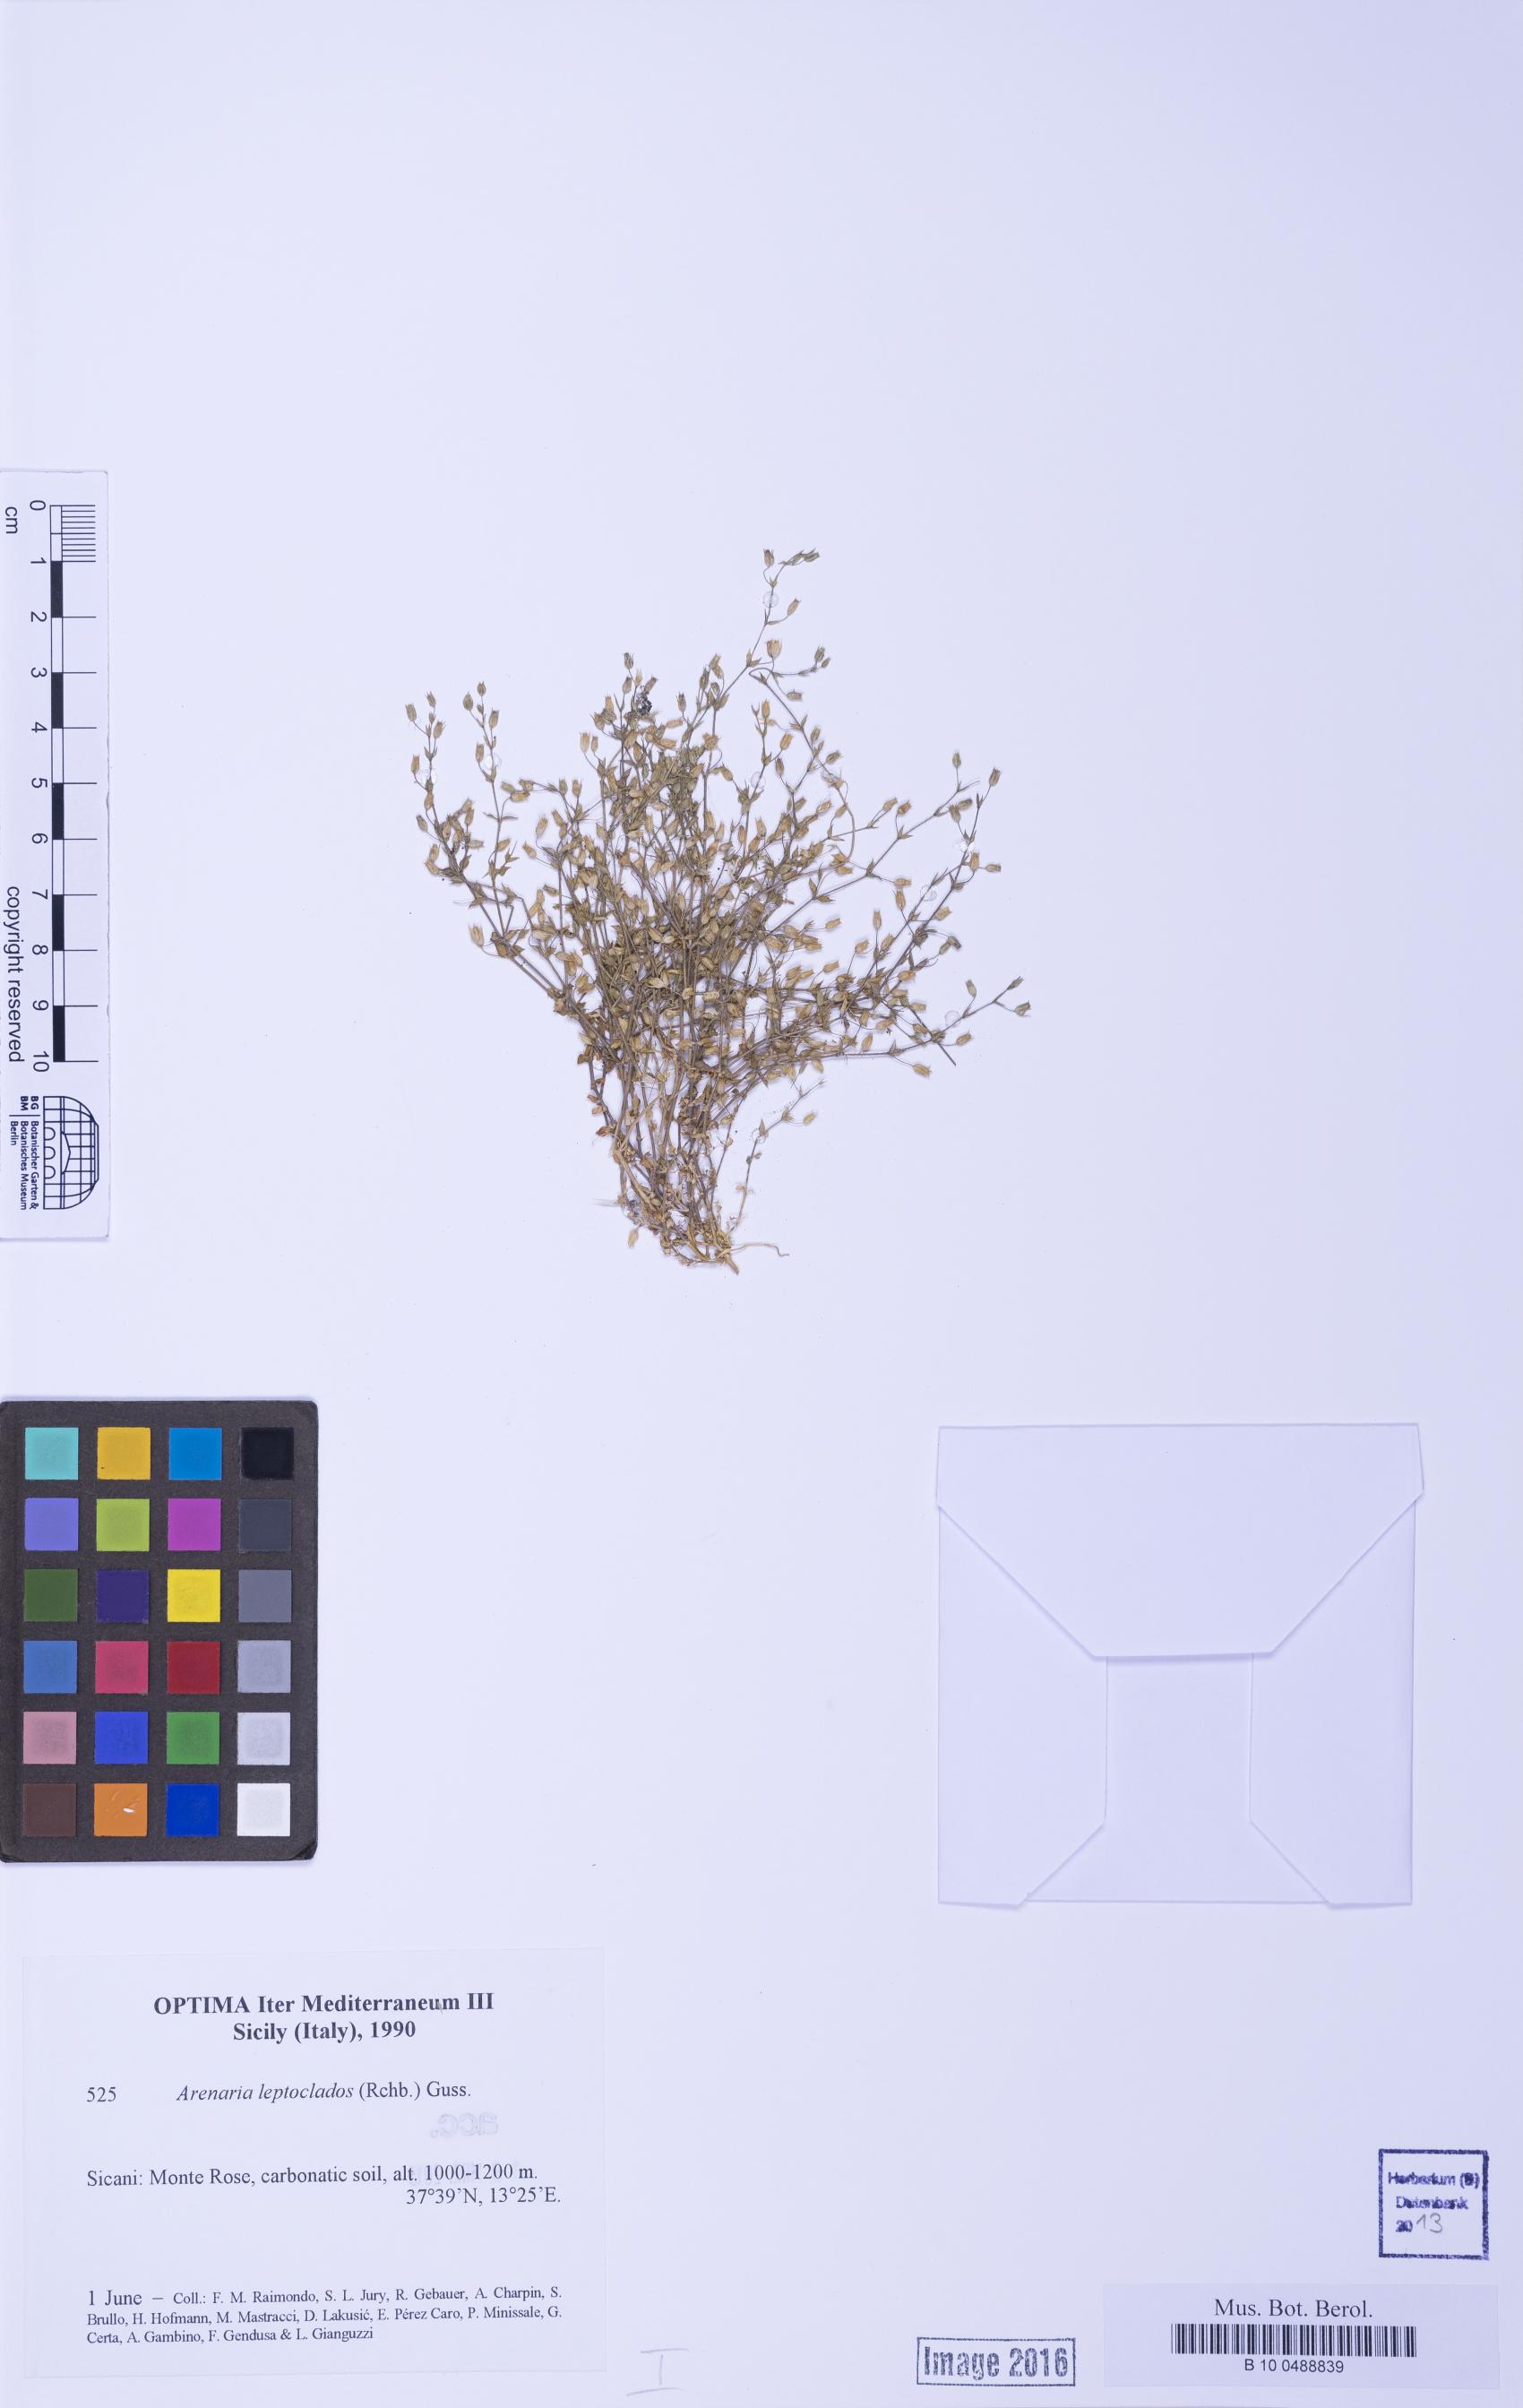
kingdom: Plantae
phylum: Tracheophyta
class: Magnoliopsida
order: Caryophyllales
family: Caryophyllaceae
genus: Arenaria
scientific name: Arenaria leptoclados
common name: Thyme-leaved sandwort
